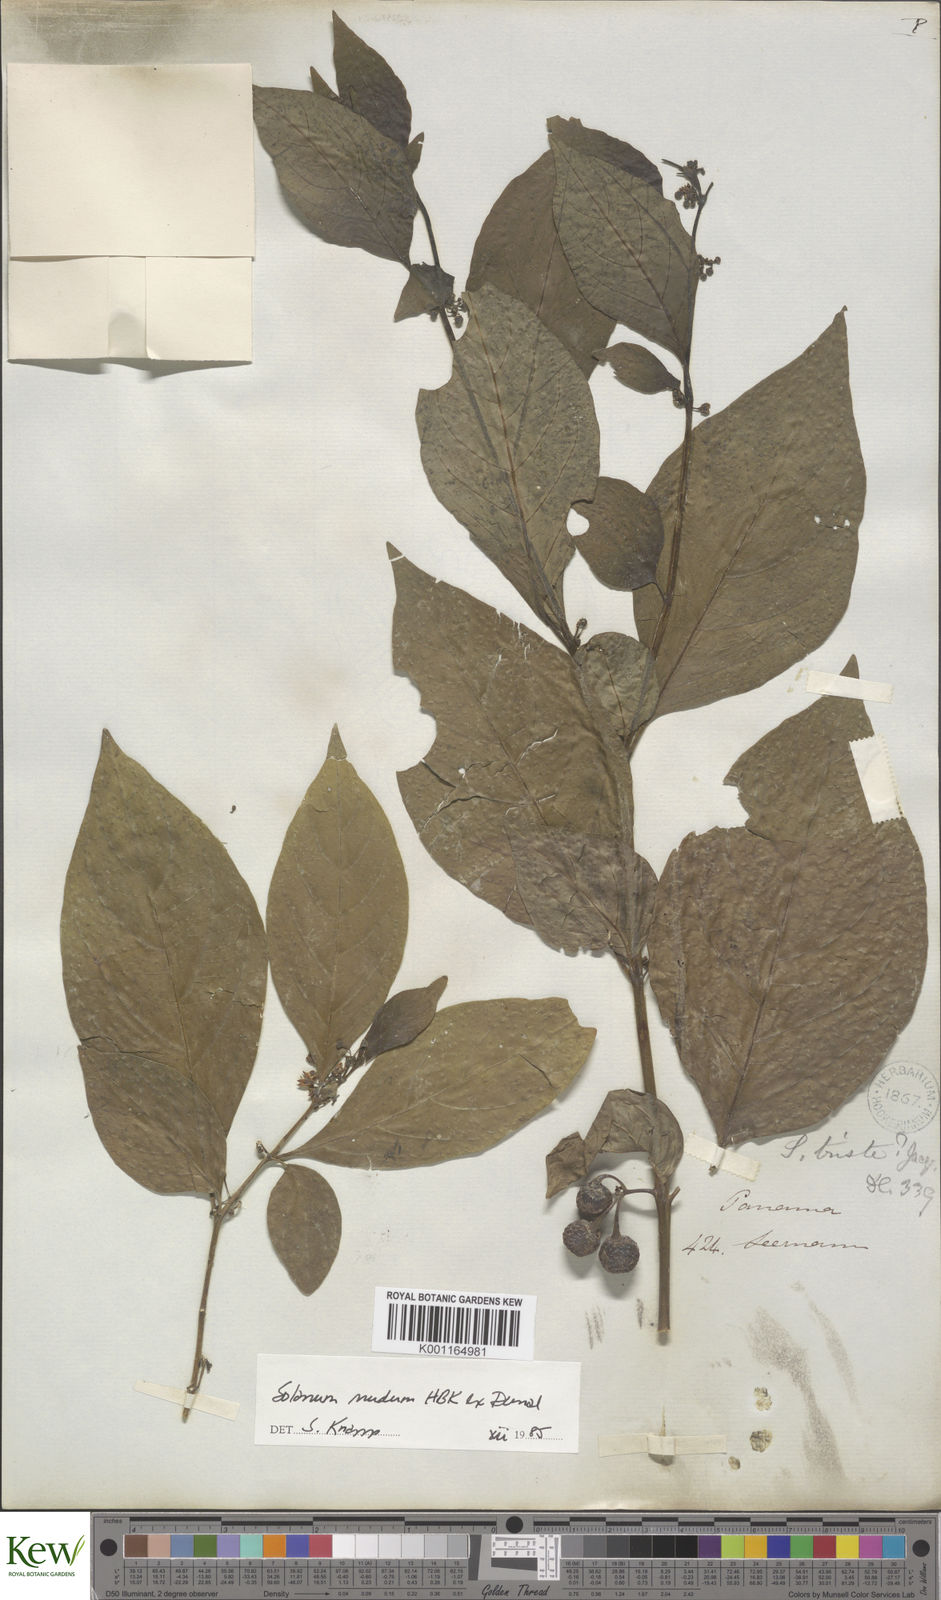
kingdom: Plantae
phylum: Tracheophyta
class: Magnoliopsida
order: Solanales
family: Solanaceae
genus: Solanum
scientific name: Solanum nudum
